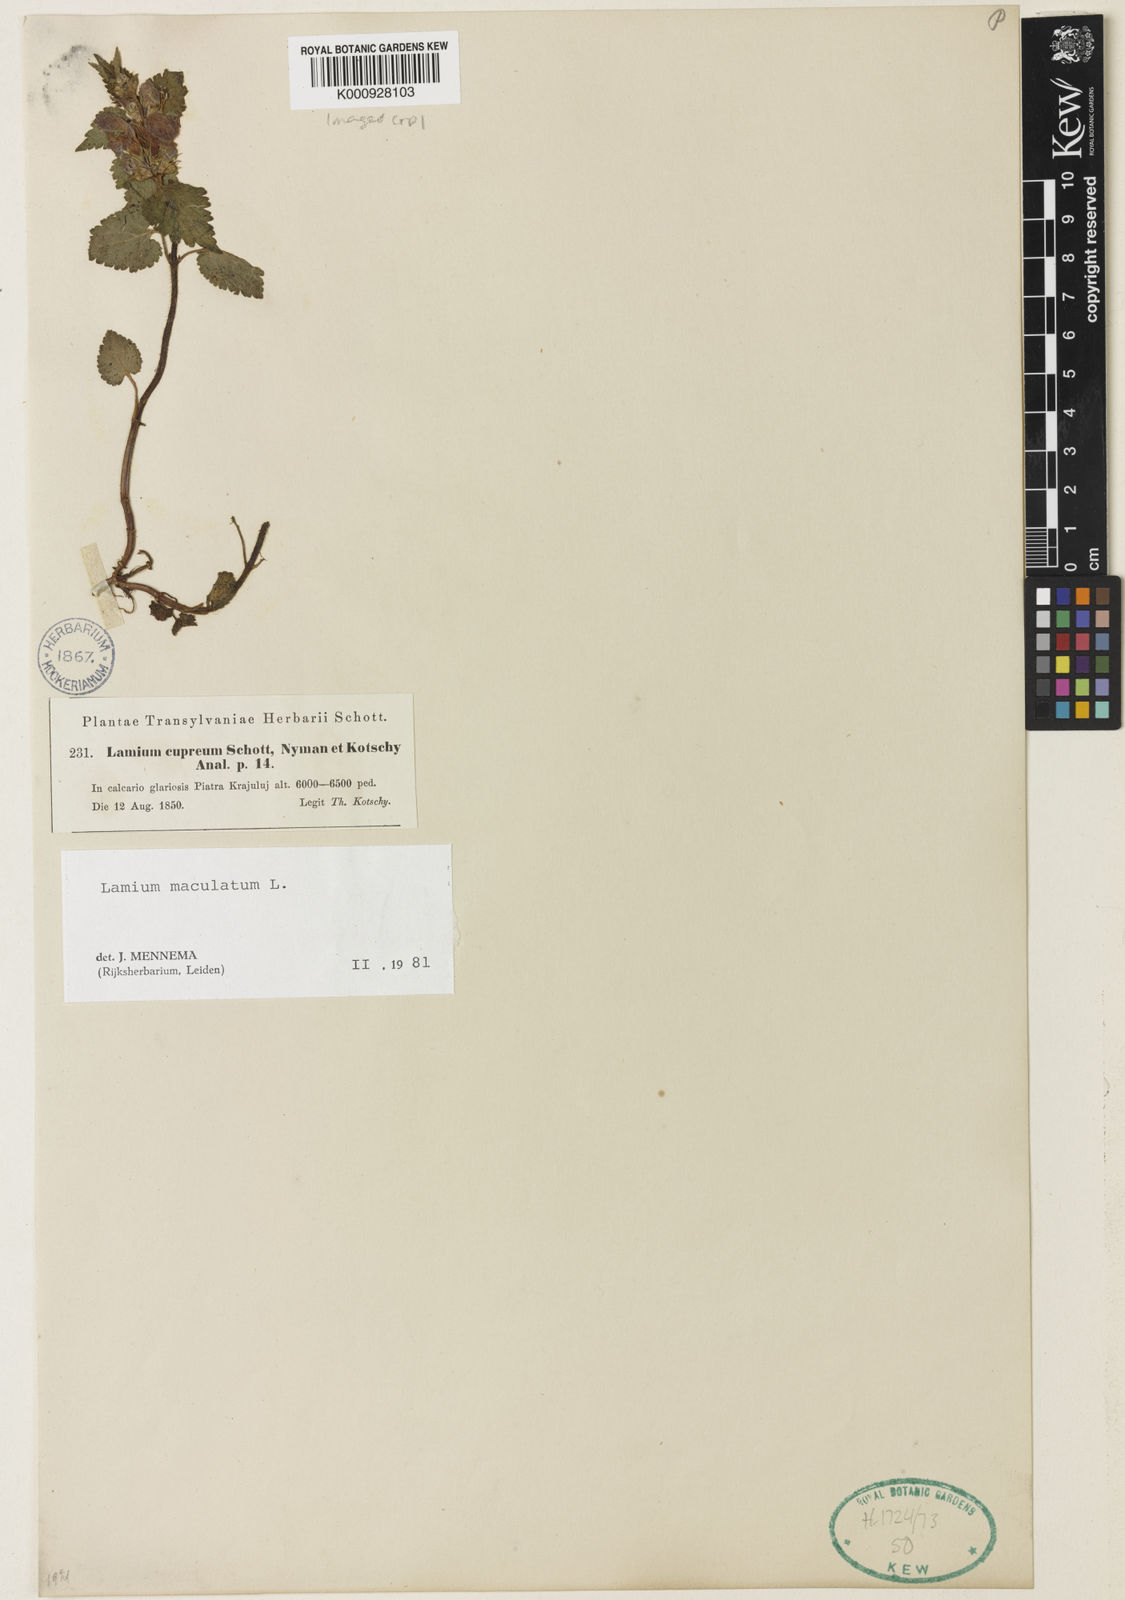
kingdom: Plantae
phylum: Tracheophyta
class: Magnoliopsida
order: Lamiales
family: Lamiaceae
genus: Lamium
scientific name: Lamium maculatum
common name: Spotted dead-nettle
